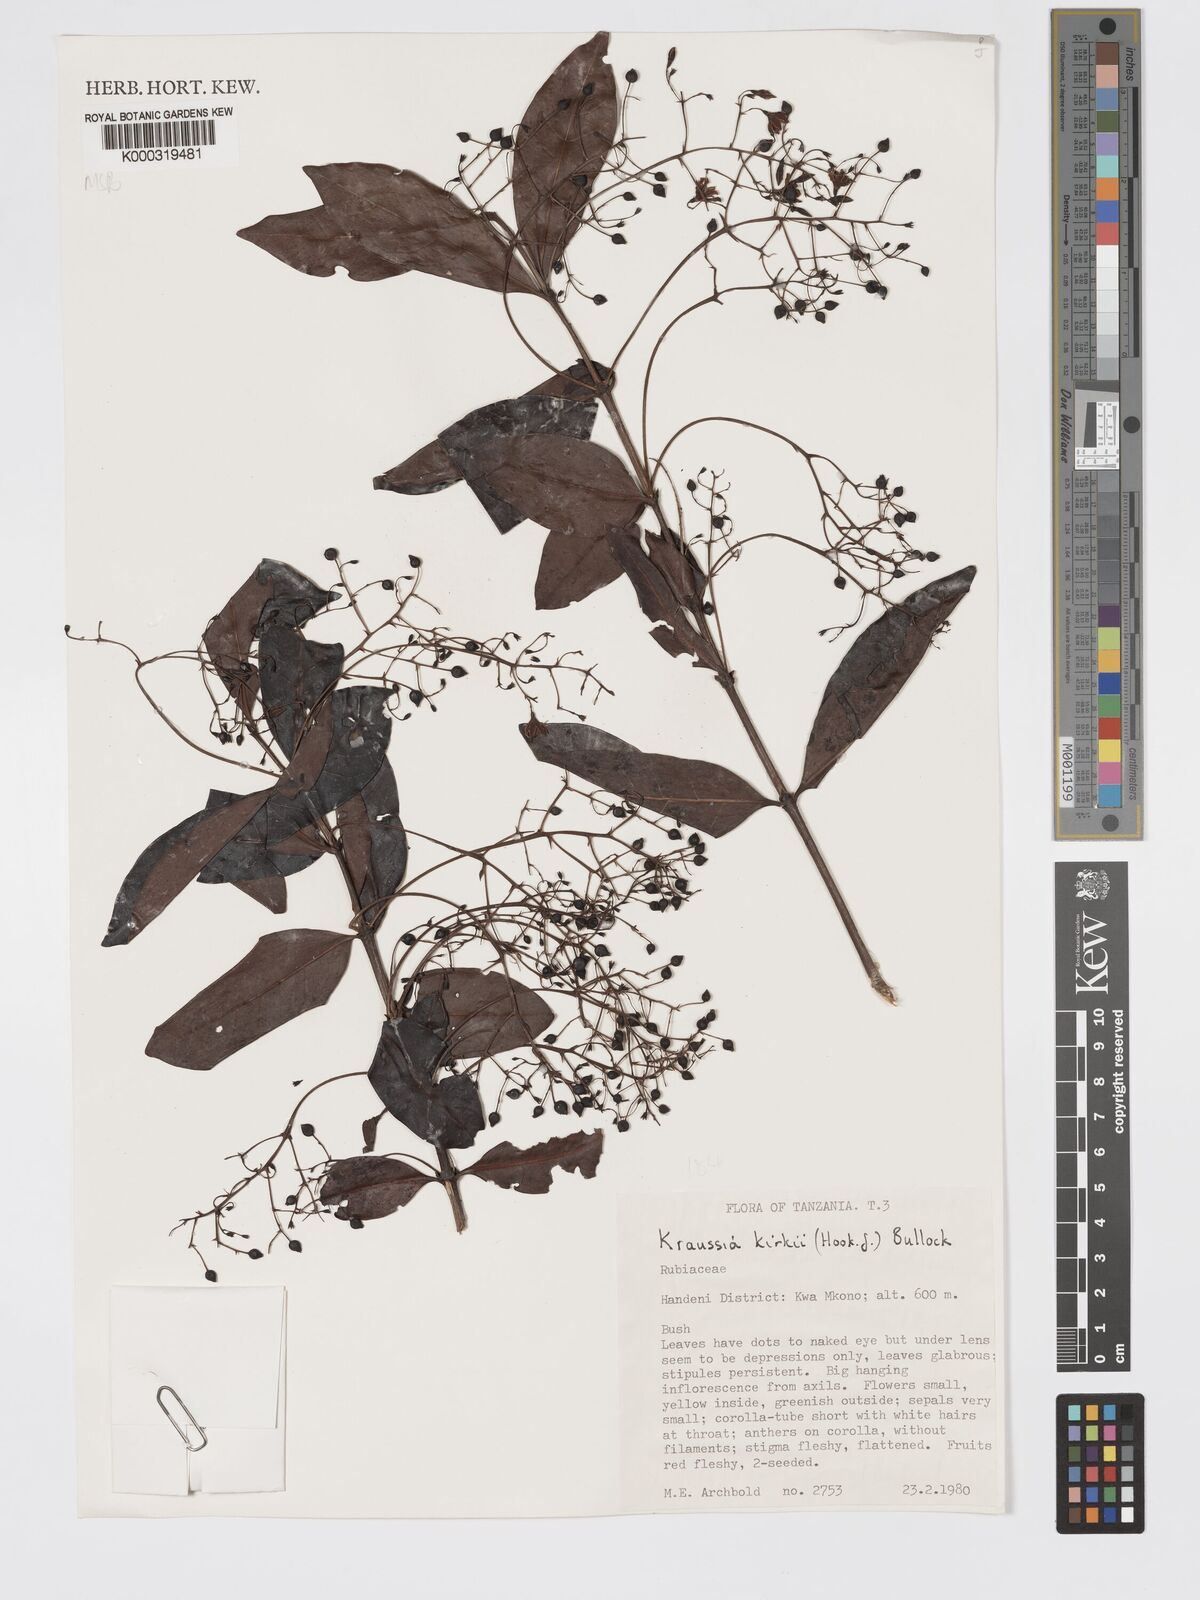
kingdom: Plantae
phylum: Tracheophyta
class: Magnoliopsida
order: Gentianales
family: Rubiaceae
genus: Kraussia
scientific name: Kraussia kirkii
